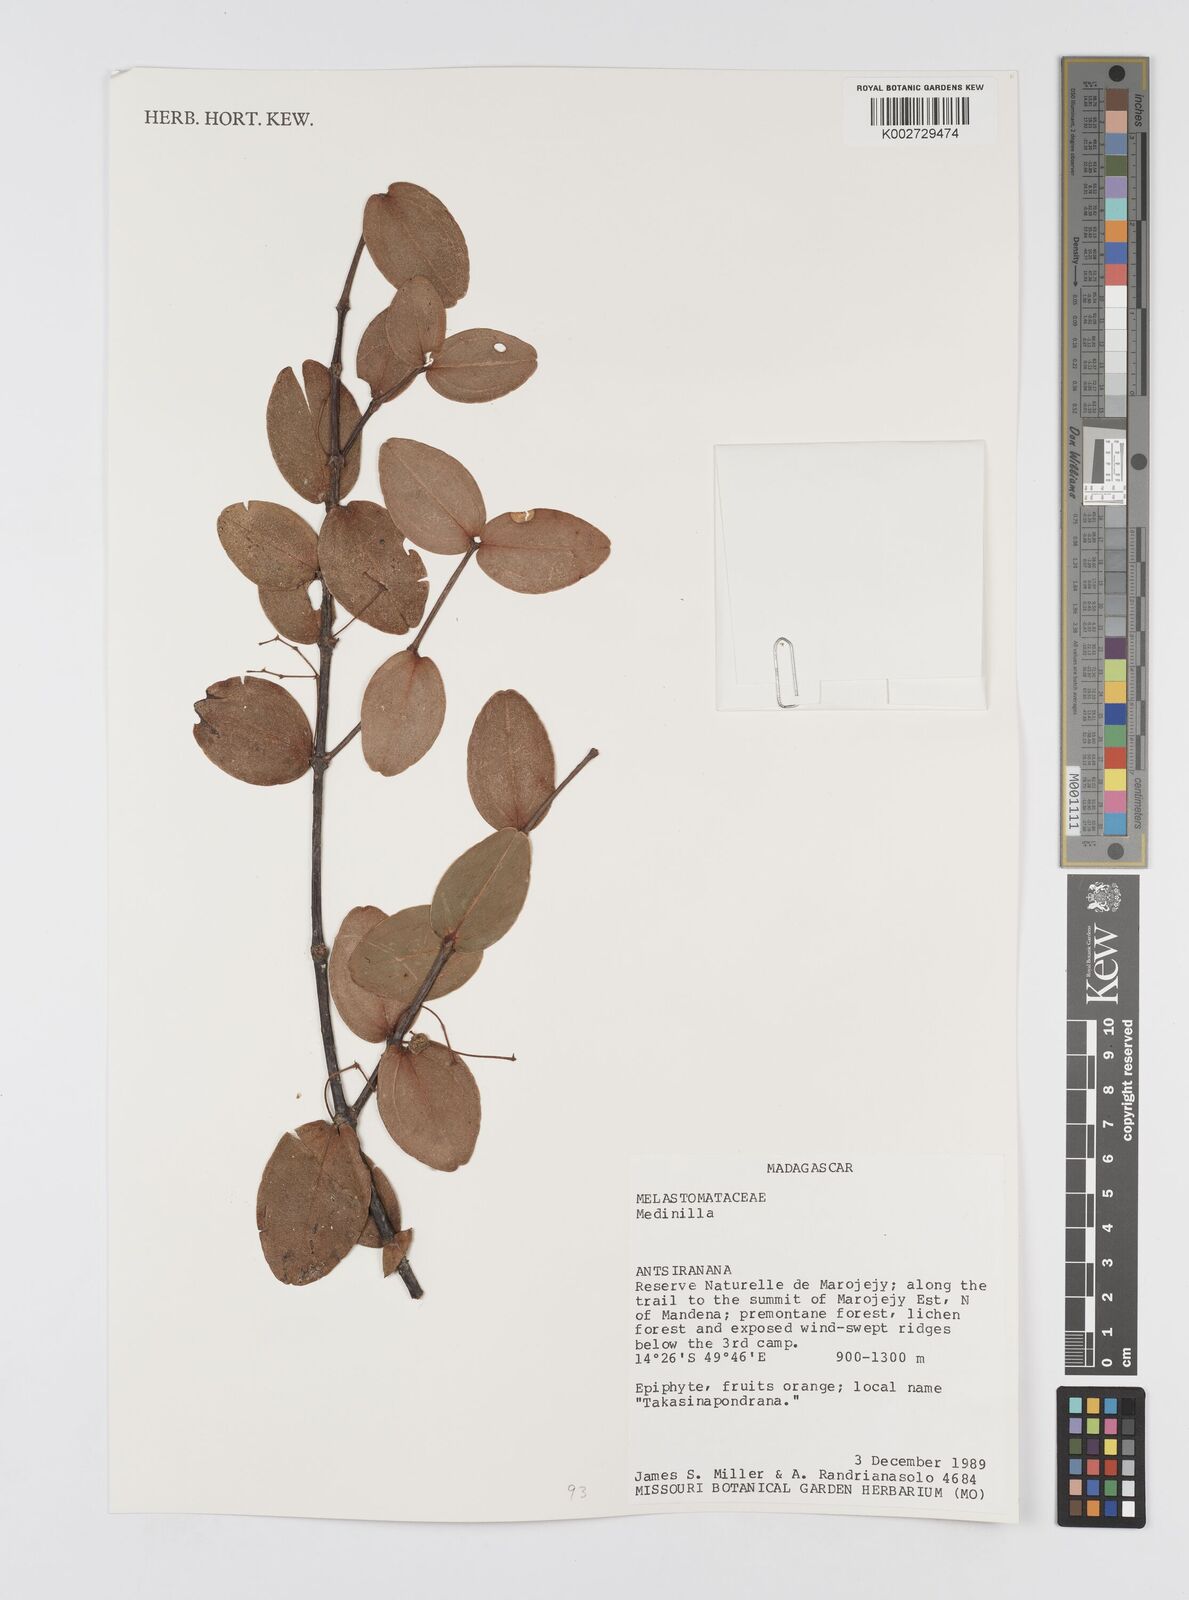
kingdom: Plantae
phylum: Tracheophyta
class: Magnoliopsida
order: Myrtales
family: Melastomataceae
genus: Medinilla
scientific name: Medinilla
